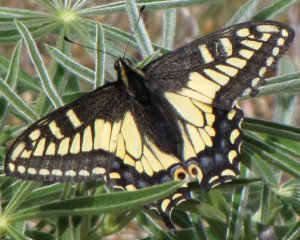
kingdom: Animalia
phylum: Arthropoda
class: Insecta
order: Lepidoptera
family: Papilionidae
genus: Papilio
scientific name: Papilio zelicaon
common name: Anise Swallowtail
